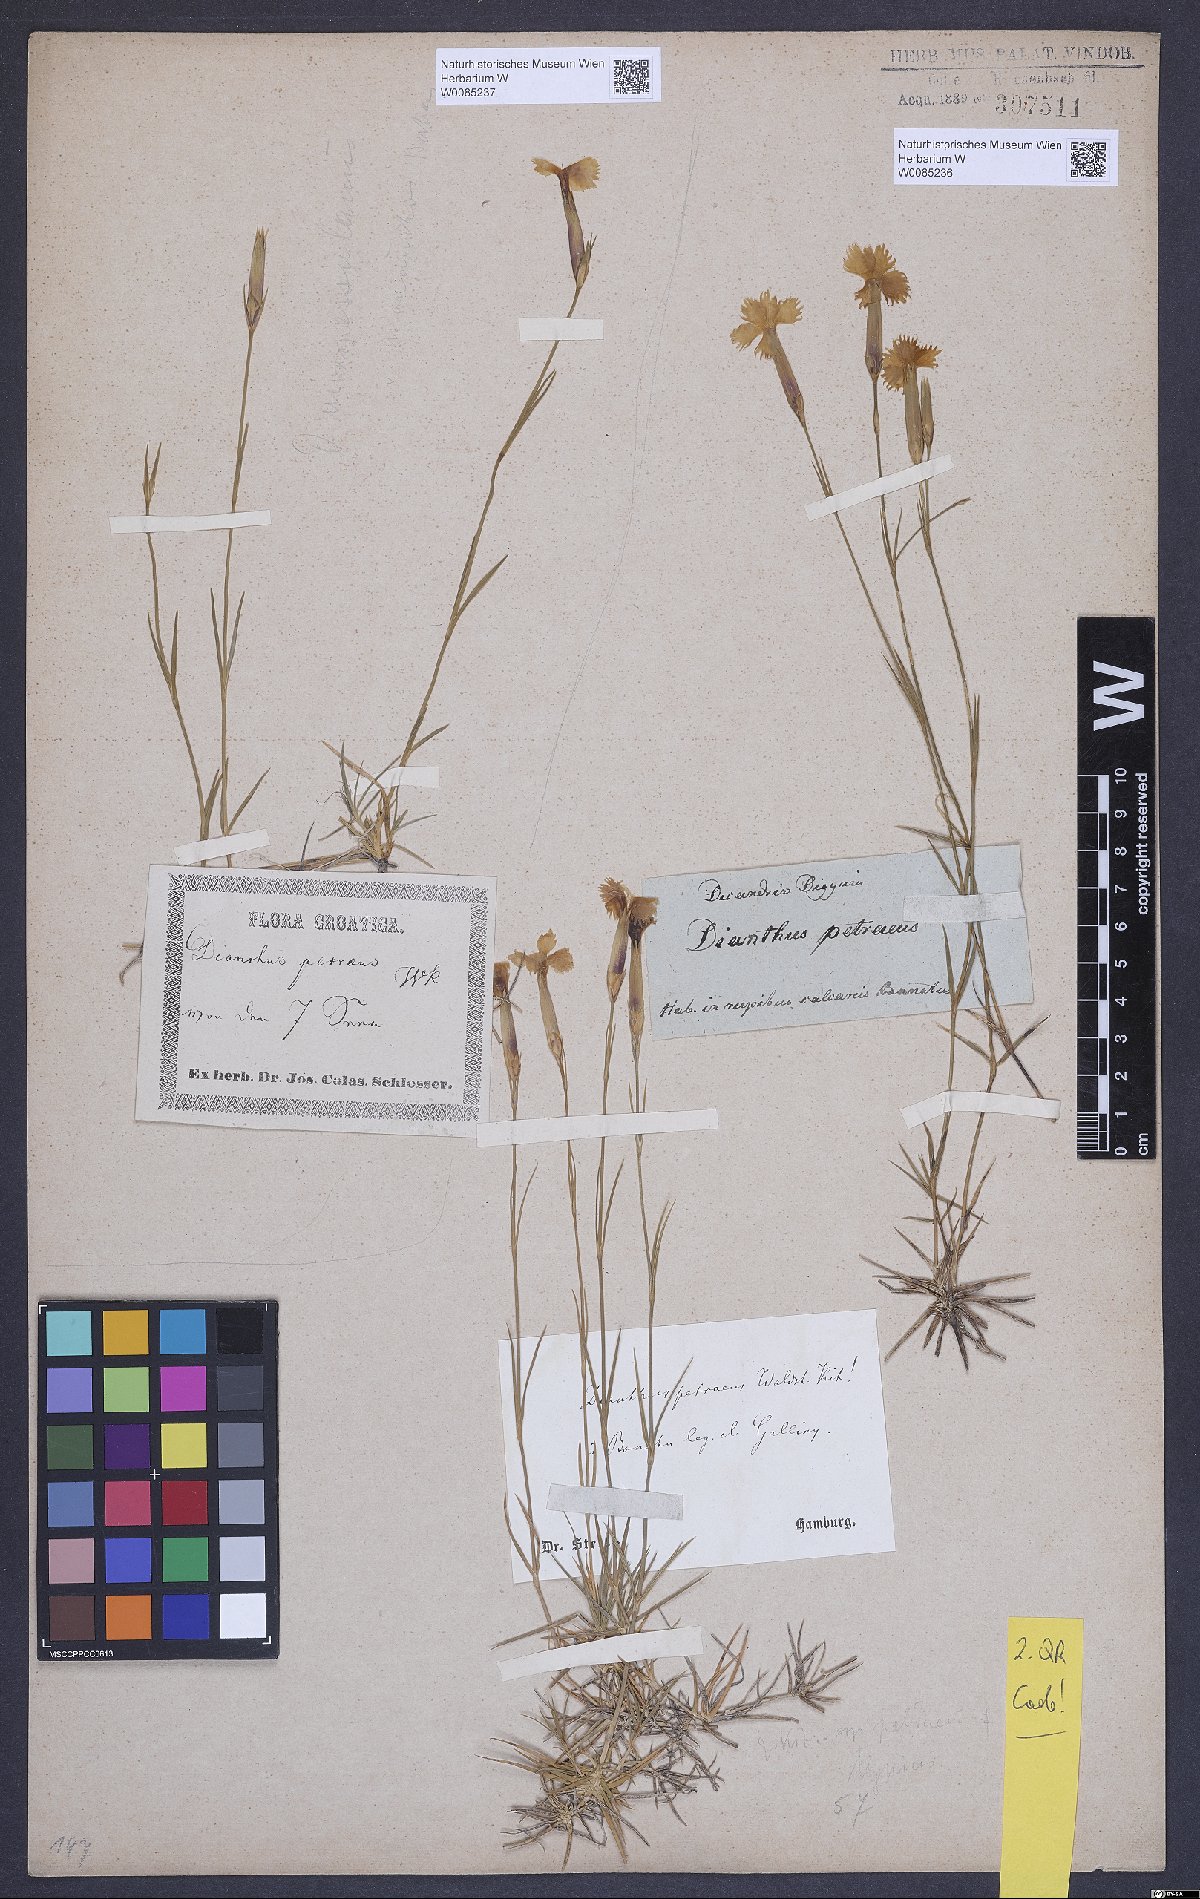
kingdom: Plantae
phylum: Tracheophyta
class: Magnoliopsida
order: Caryophyllales
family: Caryophyllaceae
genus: Dianthus
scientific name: Dianthus petraeus
